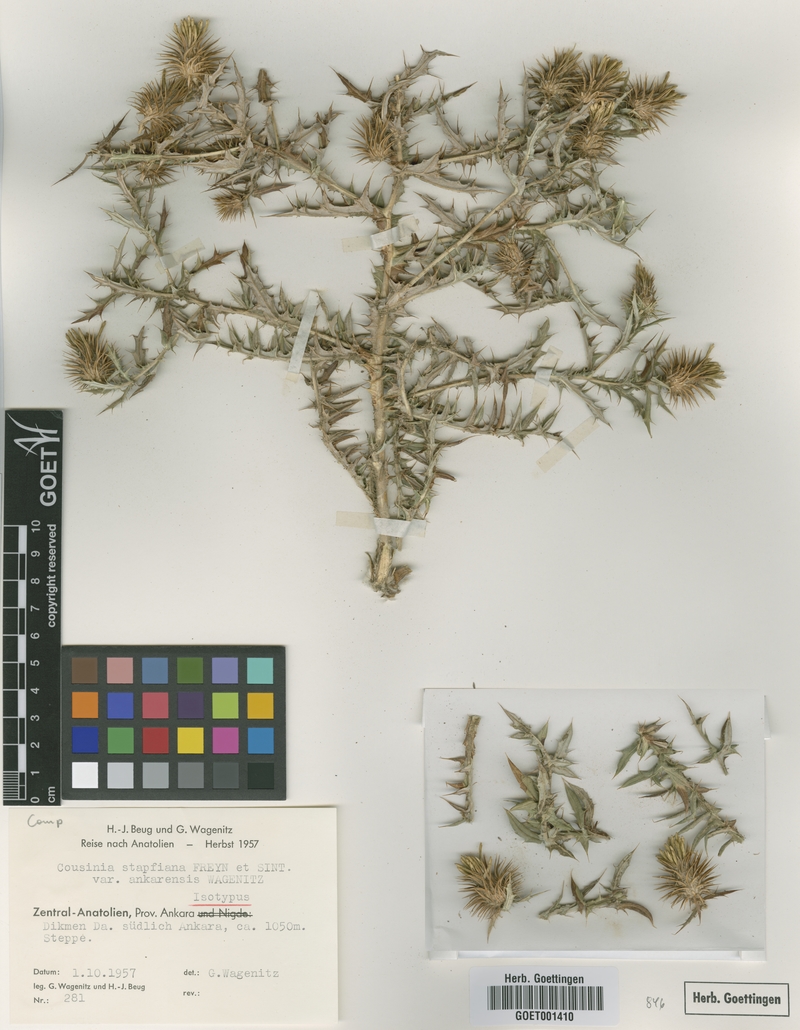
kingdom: Plantae
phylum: Tracheophyta
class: Magnoliopsida
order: Asterales
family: Asteraceae
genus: Cousinia
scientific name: Cousinia stapfiana
